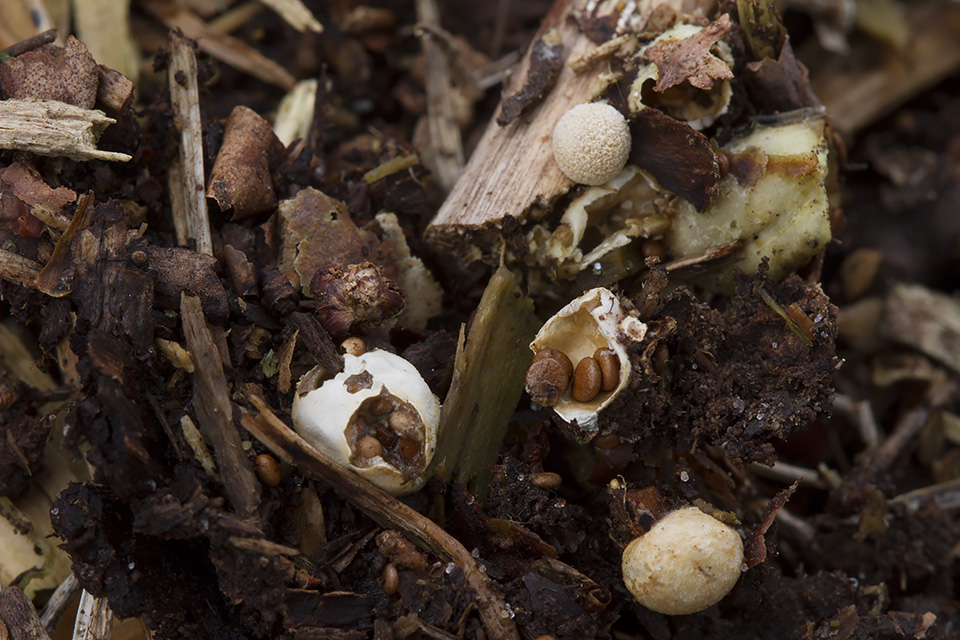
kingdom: Fungi
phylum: Basidiomycota
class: Agaricomycetes
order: Agaricales
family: Agaricaceae
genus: Nidularia
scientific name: Nidularia deformis
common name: pudesvamp
